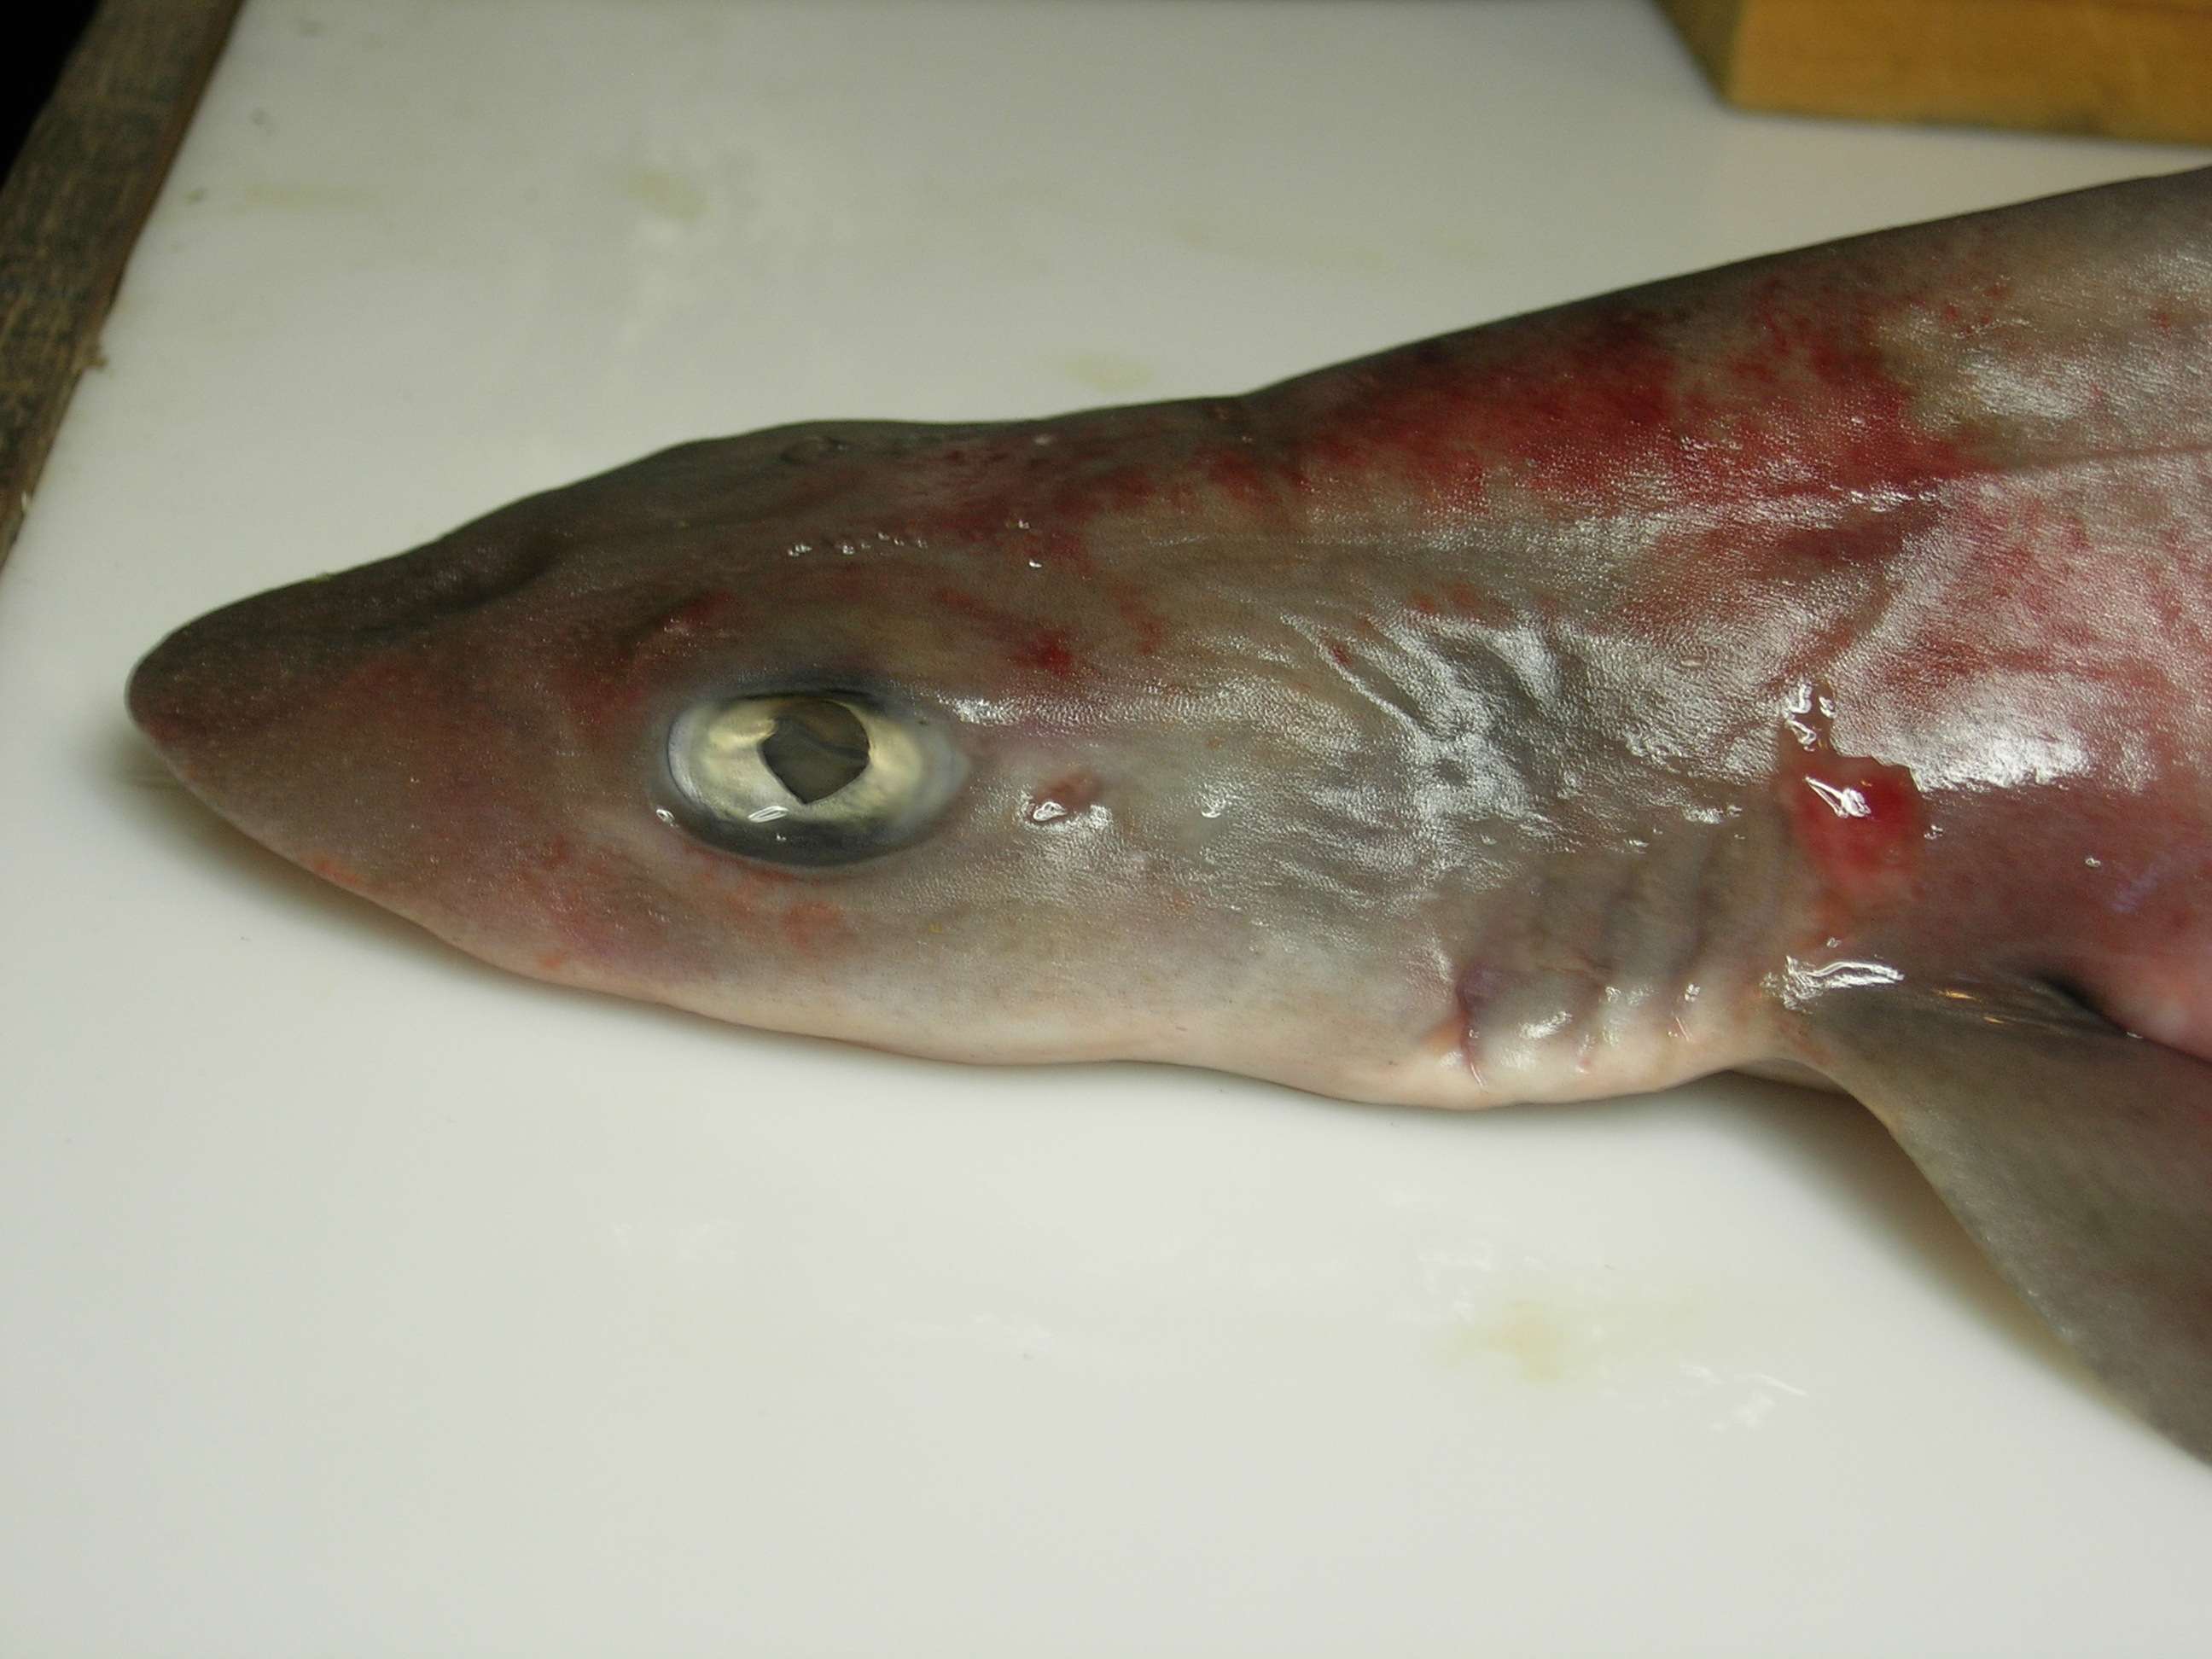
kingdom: Animalia
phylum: Chordata
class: Elasmobranchii
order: Carcharhiniformes
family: Triakidae
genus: Mustelus
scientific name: Mustelus palumbes
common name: Whitespotted smooth-hound
